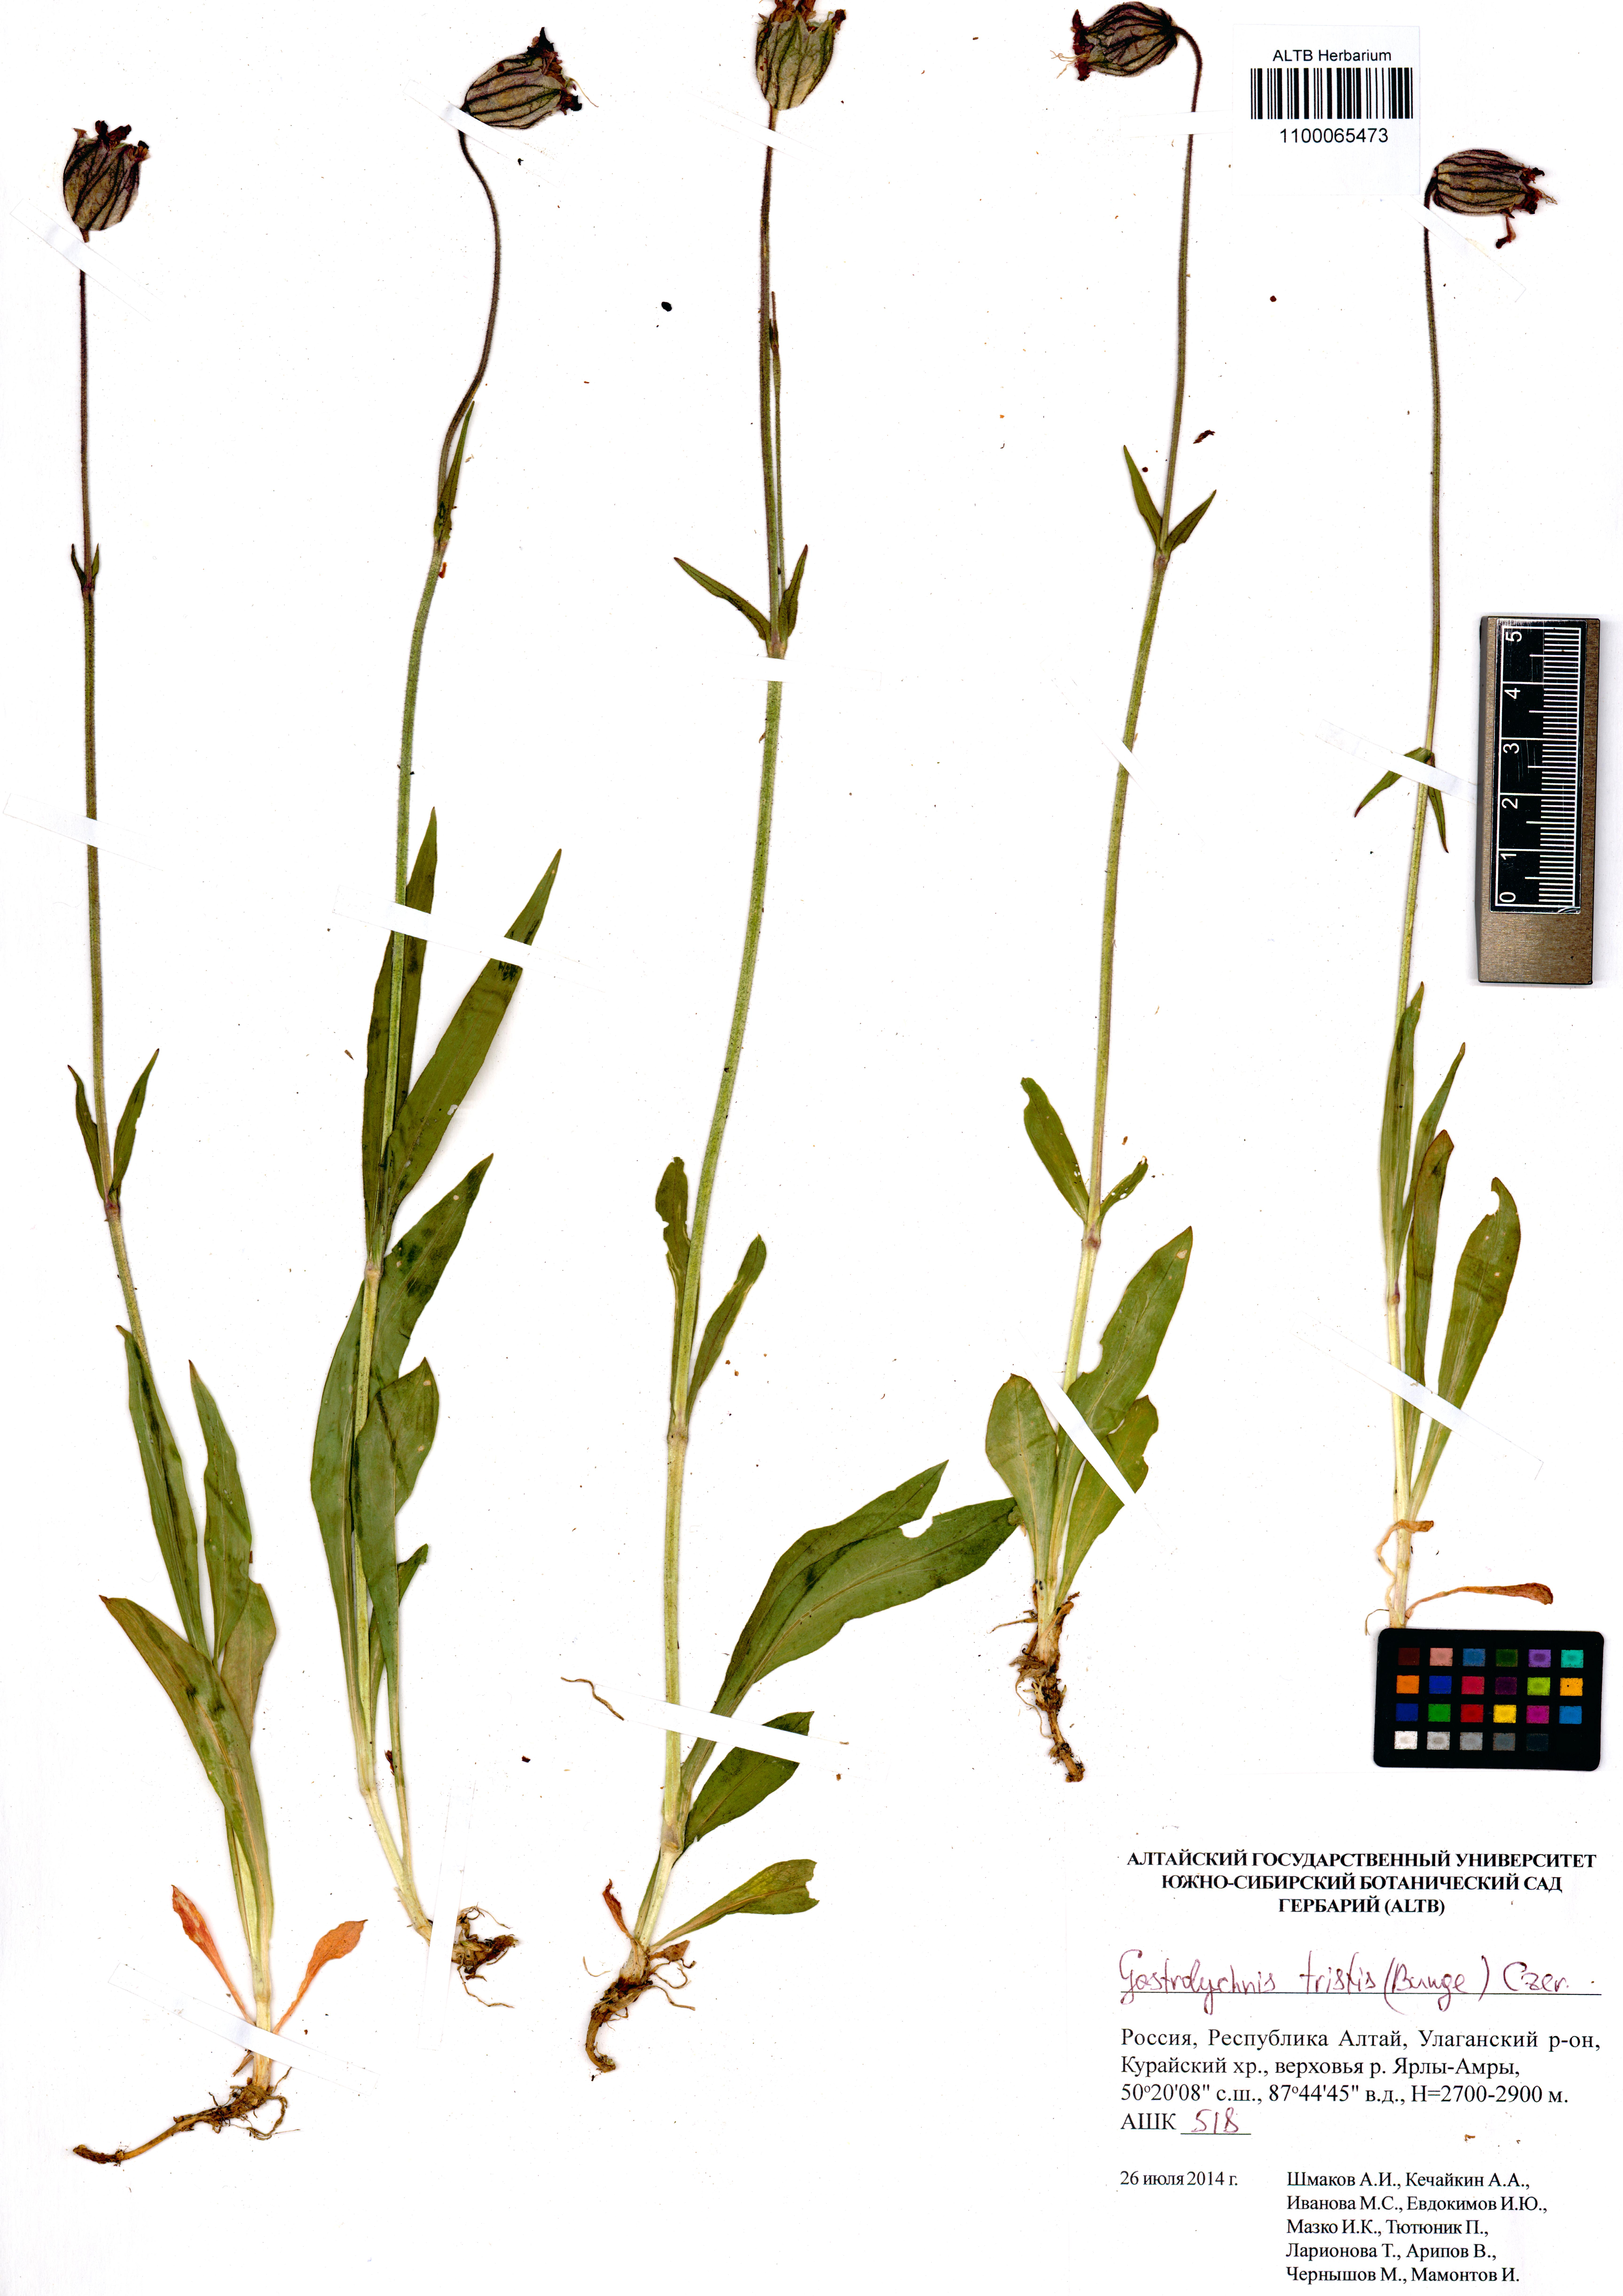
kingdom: Plantae
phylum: Tracheophyta
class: Magnoliopsida
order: Caryophyllales
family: Caryophyllaceae
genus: Silene
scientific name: Silene bungei
